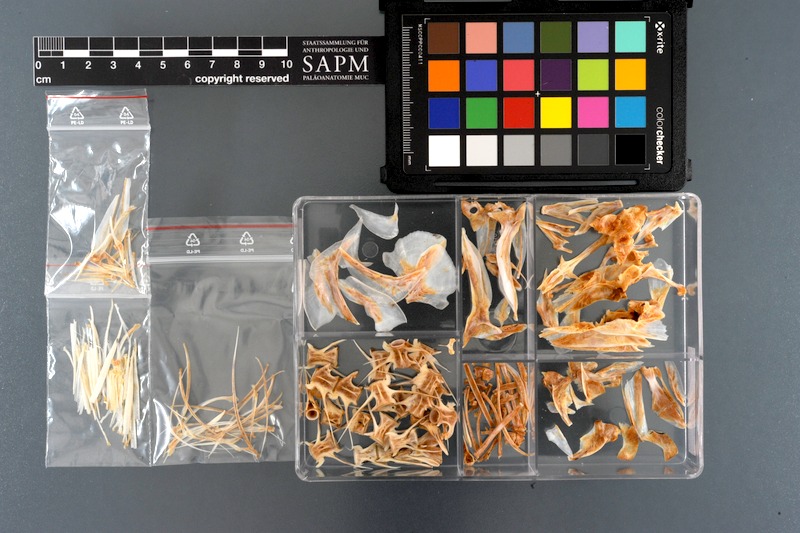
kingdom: Animalia
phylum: Chordata
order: Perciformes
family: Carangidae
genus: Elagatis
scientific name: Elagatis bipinnulata
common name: Rainbow runner
